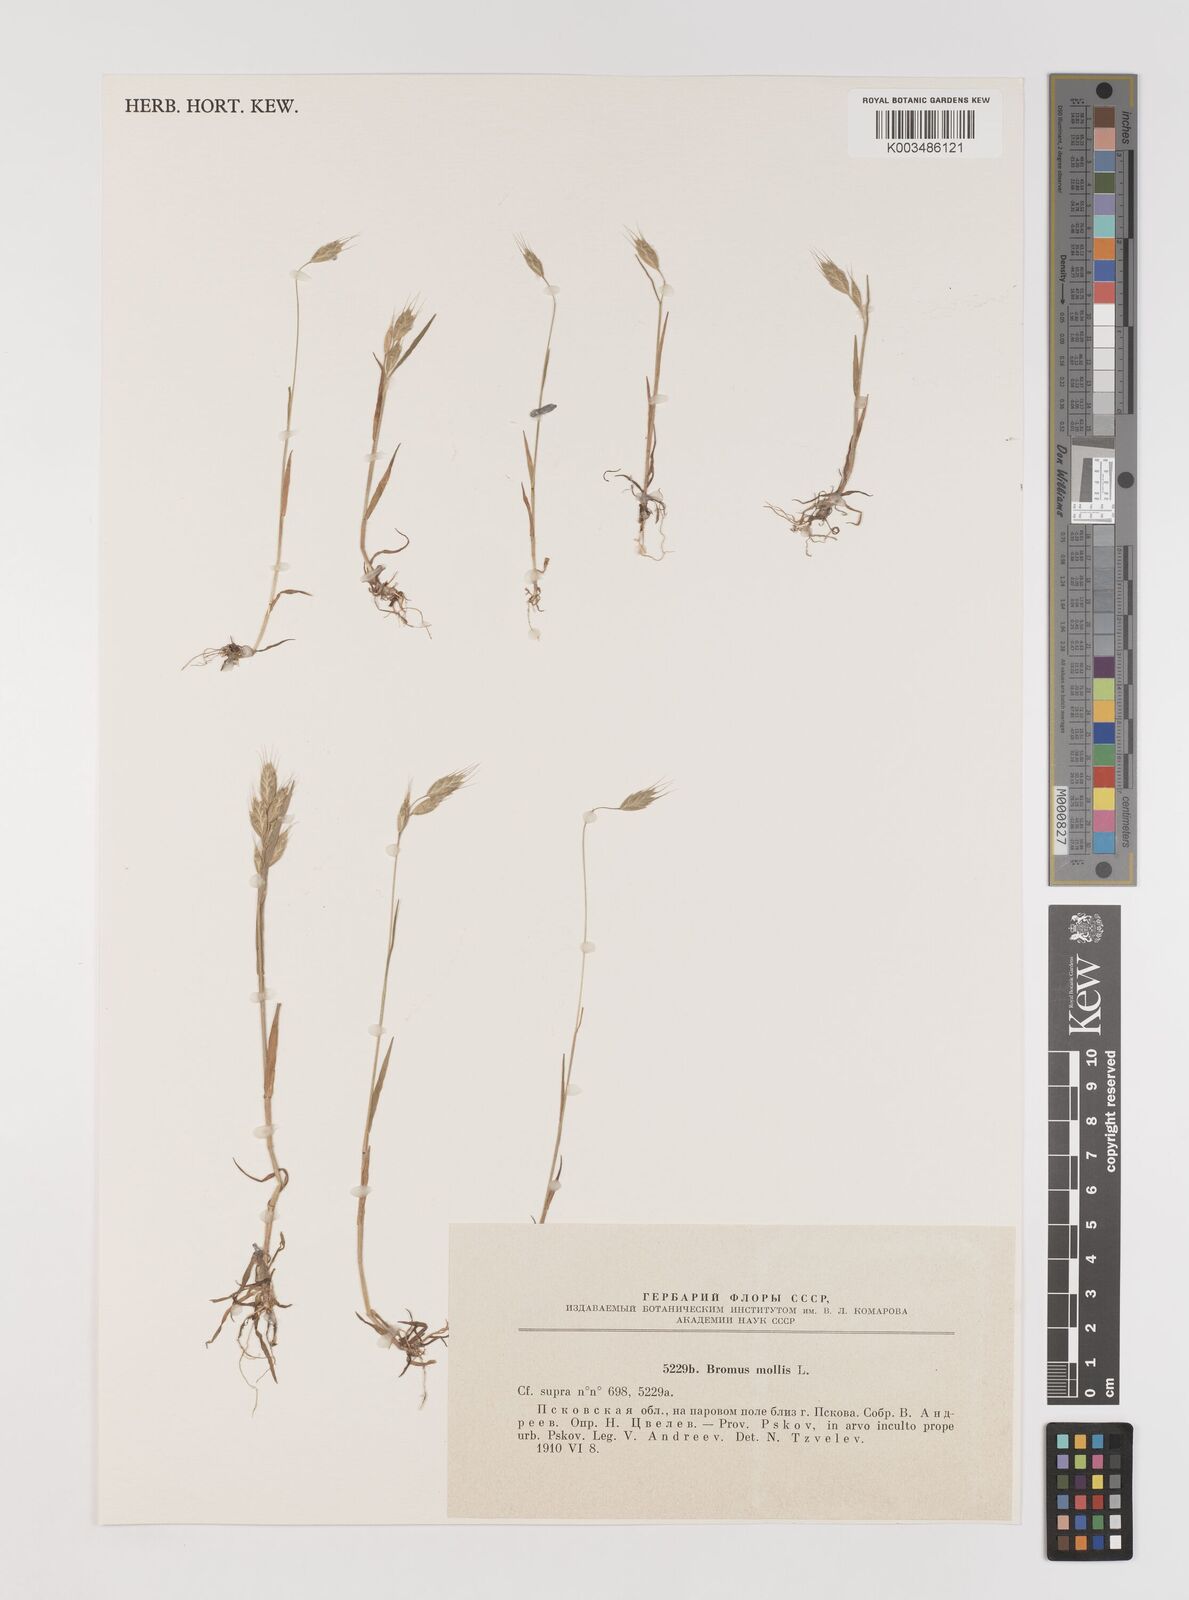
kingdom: Plantae
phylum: Tracheophyta
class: Liliopsida
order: Poales
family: Poaceae
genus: Bromus
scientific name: Bromus hordeaceus
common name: Soft brome
